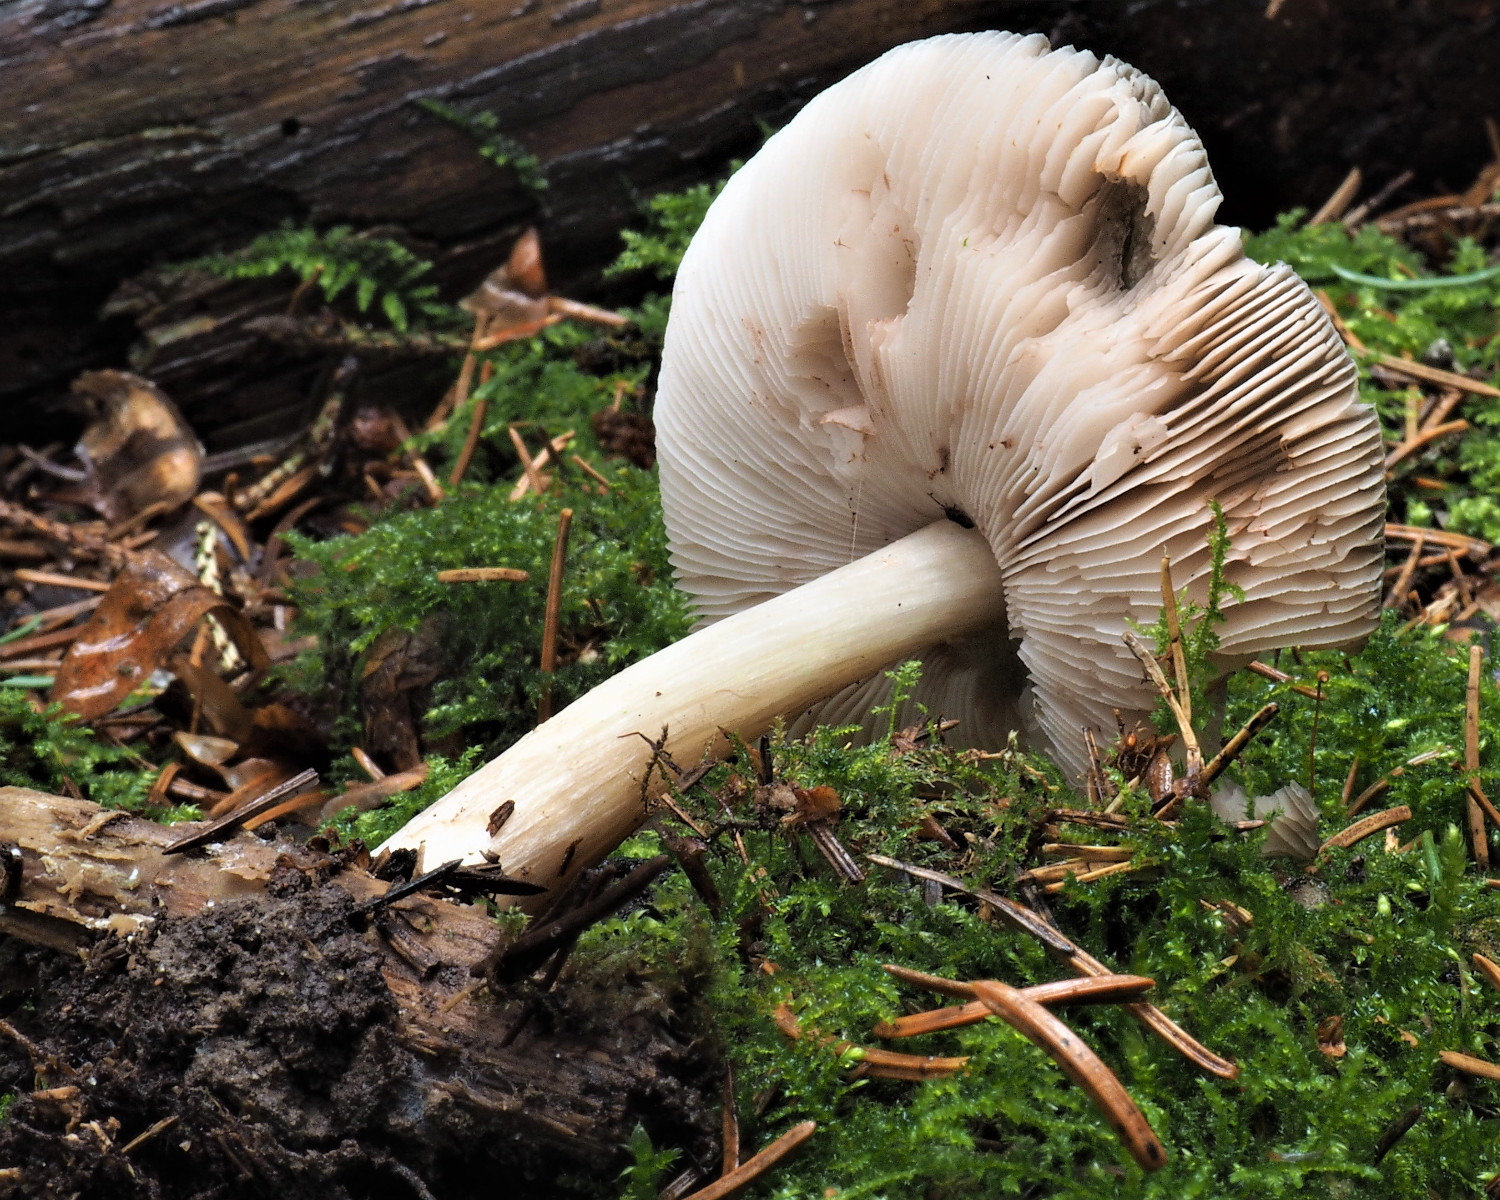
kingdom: Fungi
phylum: Basidiomycota
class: Agaricomycetes
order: Agaricales
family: Pluteaceae
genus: Pluteus
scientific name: Pluteus
